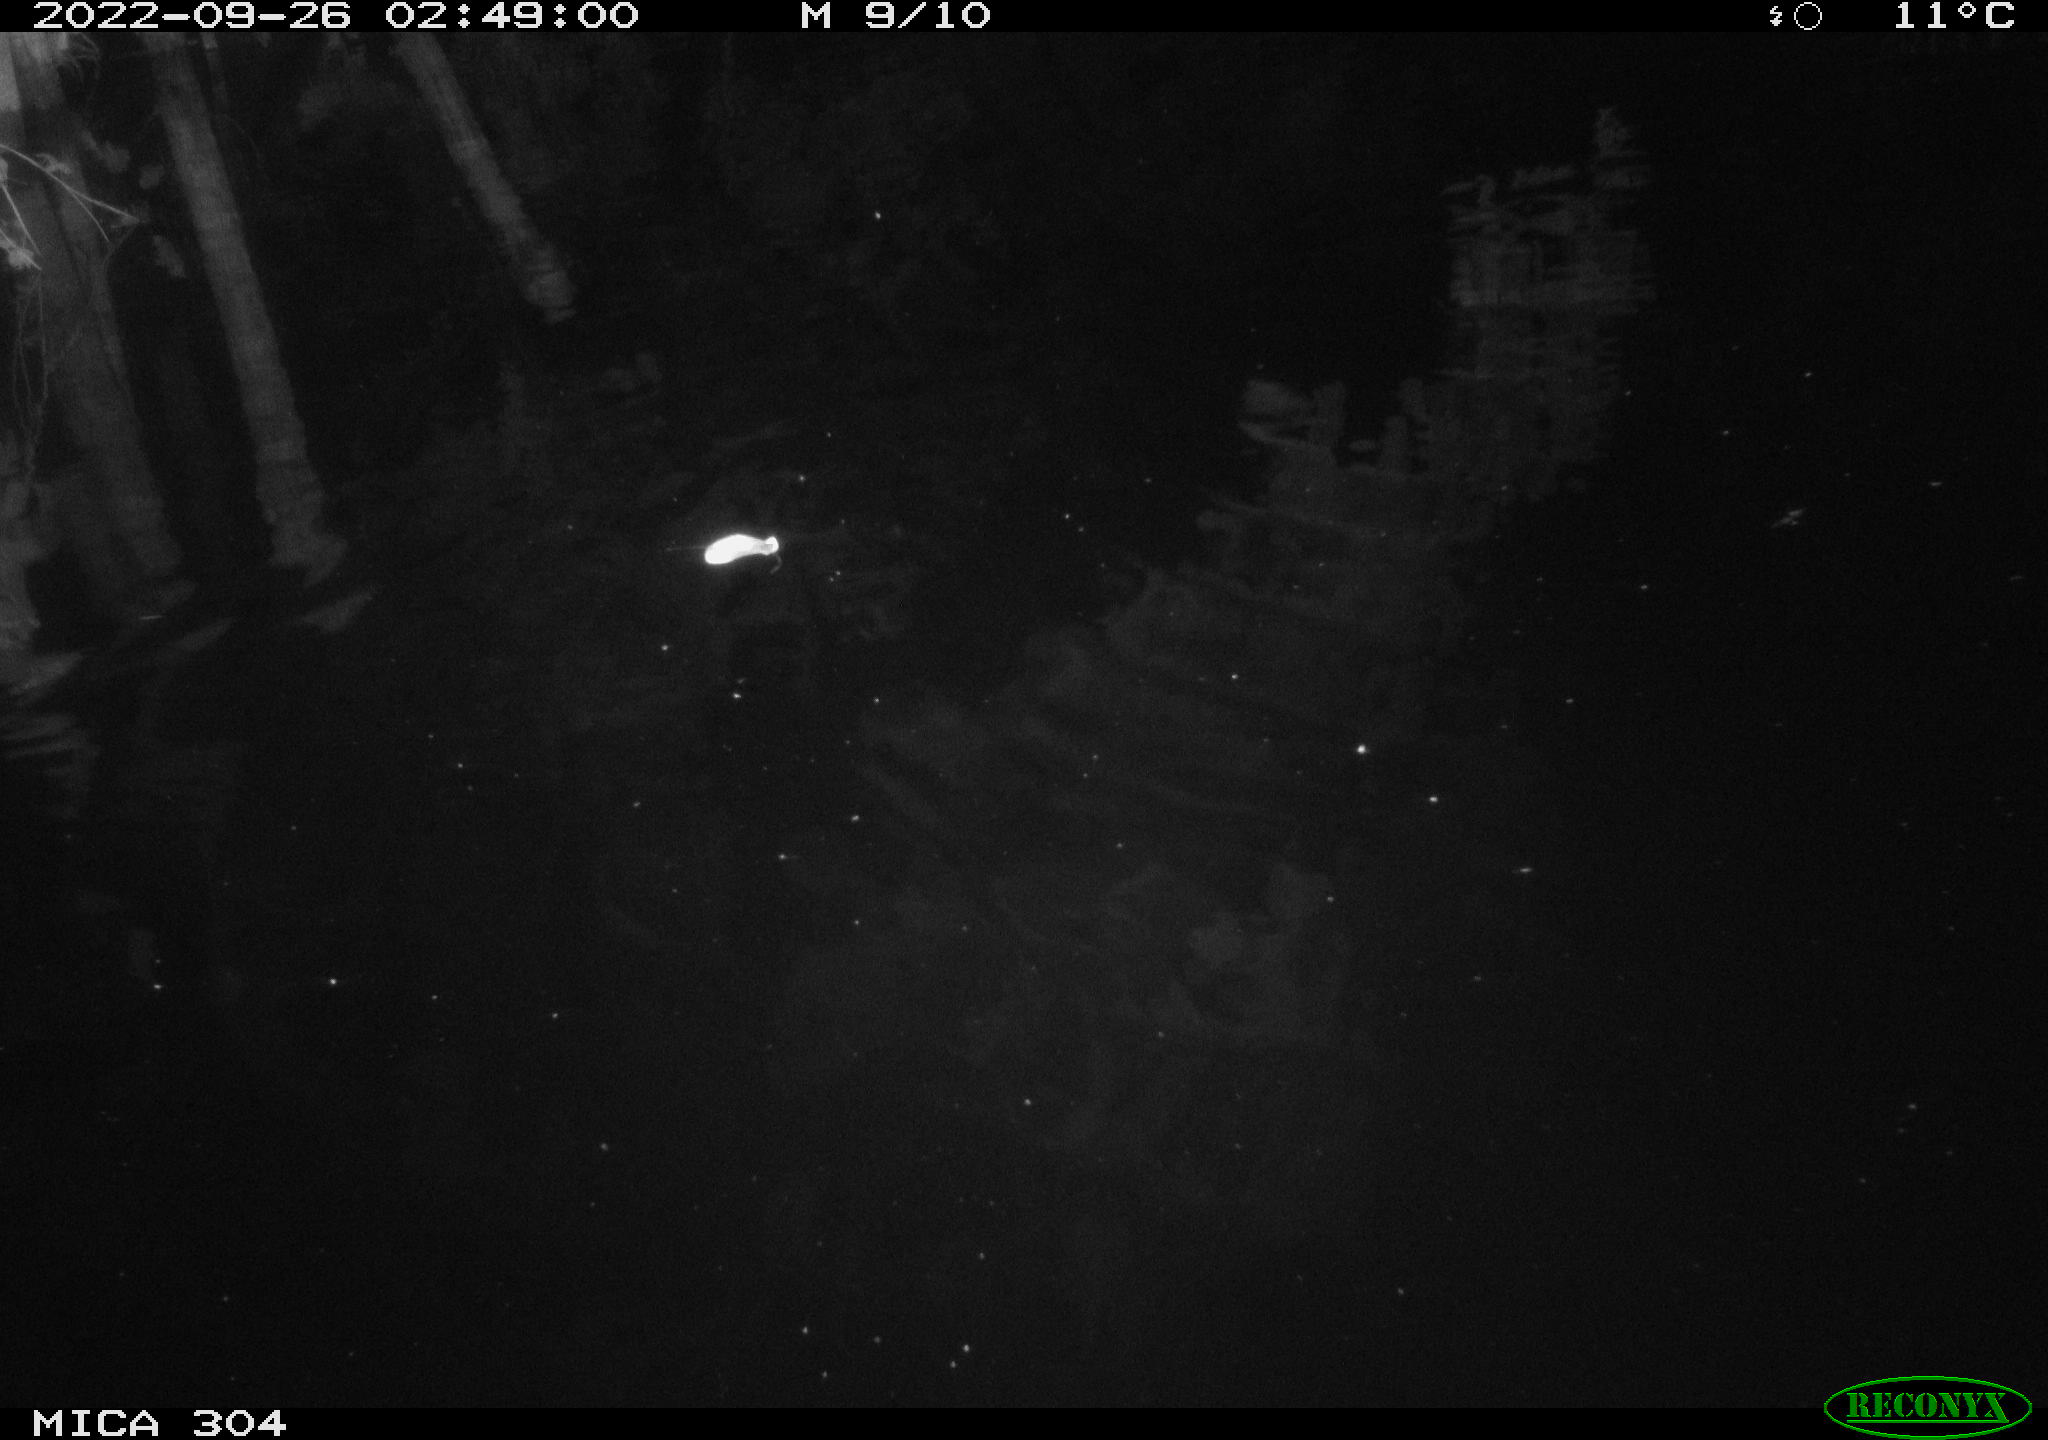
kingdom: Animalia
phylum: Chordata
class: Mammalia
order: Rodentia
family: Muridae
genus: Rattus
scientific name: Rattus norvegicus
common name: Brown rat
